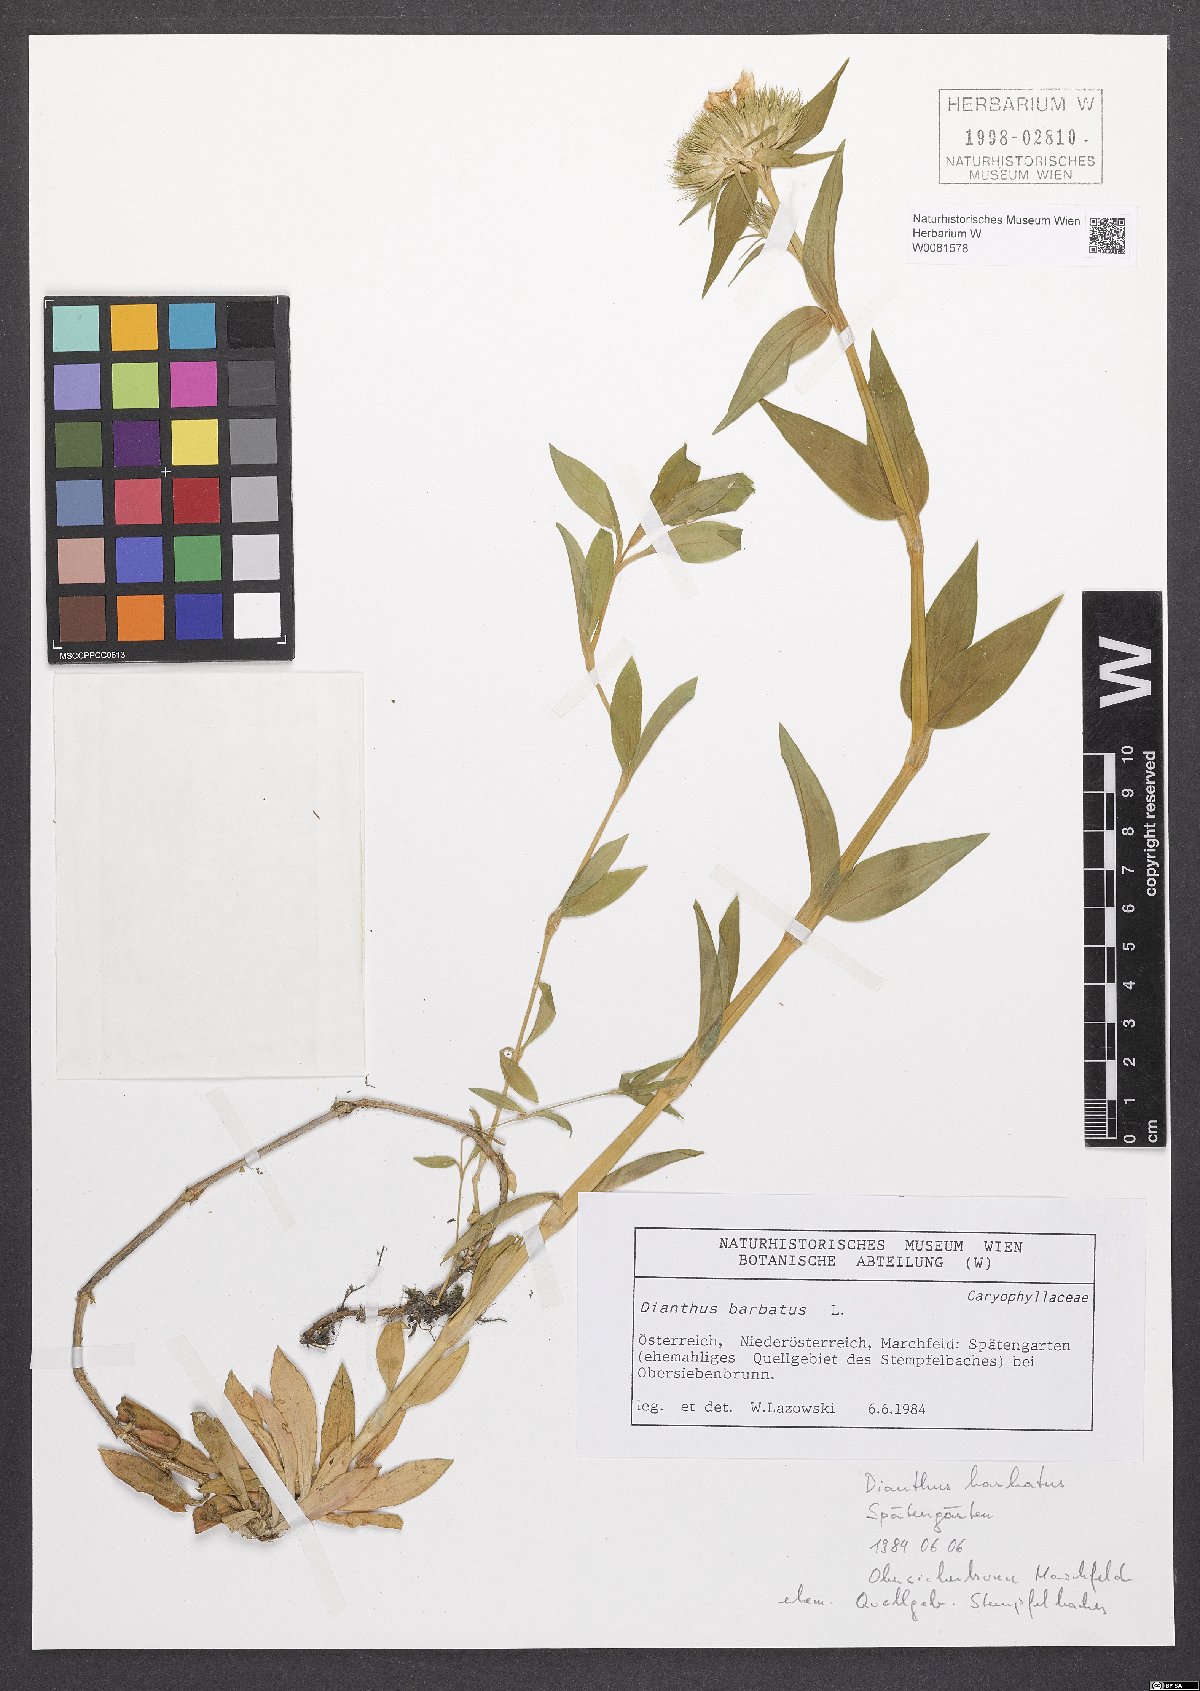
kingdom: Plantae
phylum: Tracheophyta
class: Magnoliopsida
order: Caryophyllales
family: Caryophyllaceae
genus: Dianthus
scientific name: Dianthus barbatus
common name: Sweet-william
